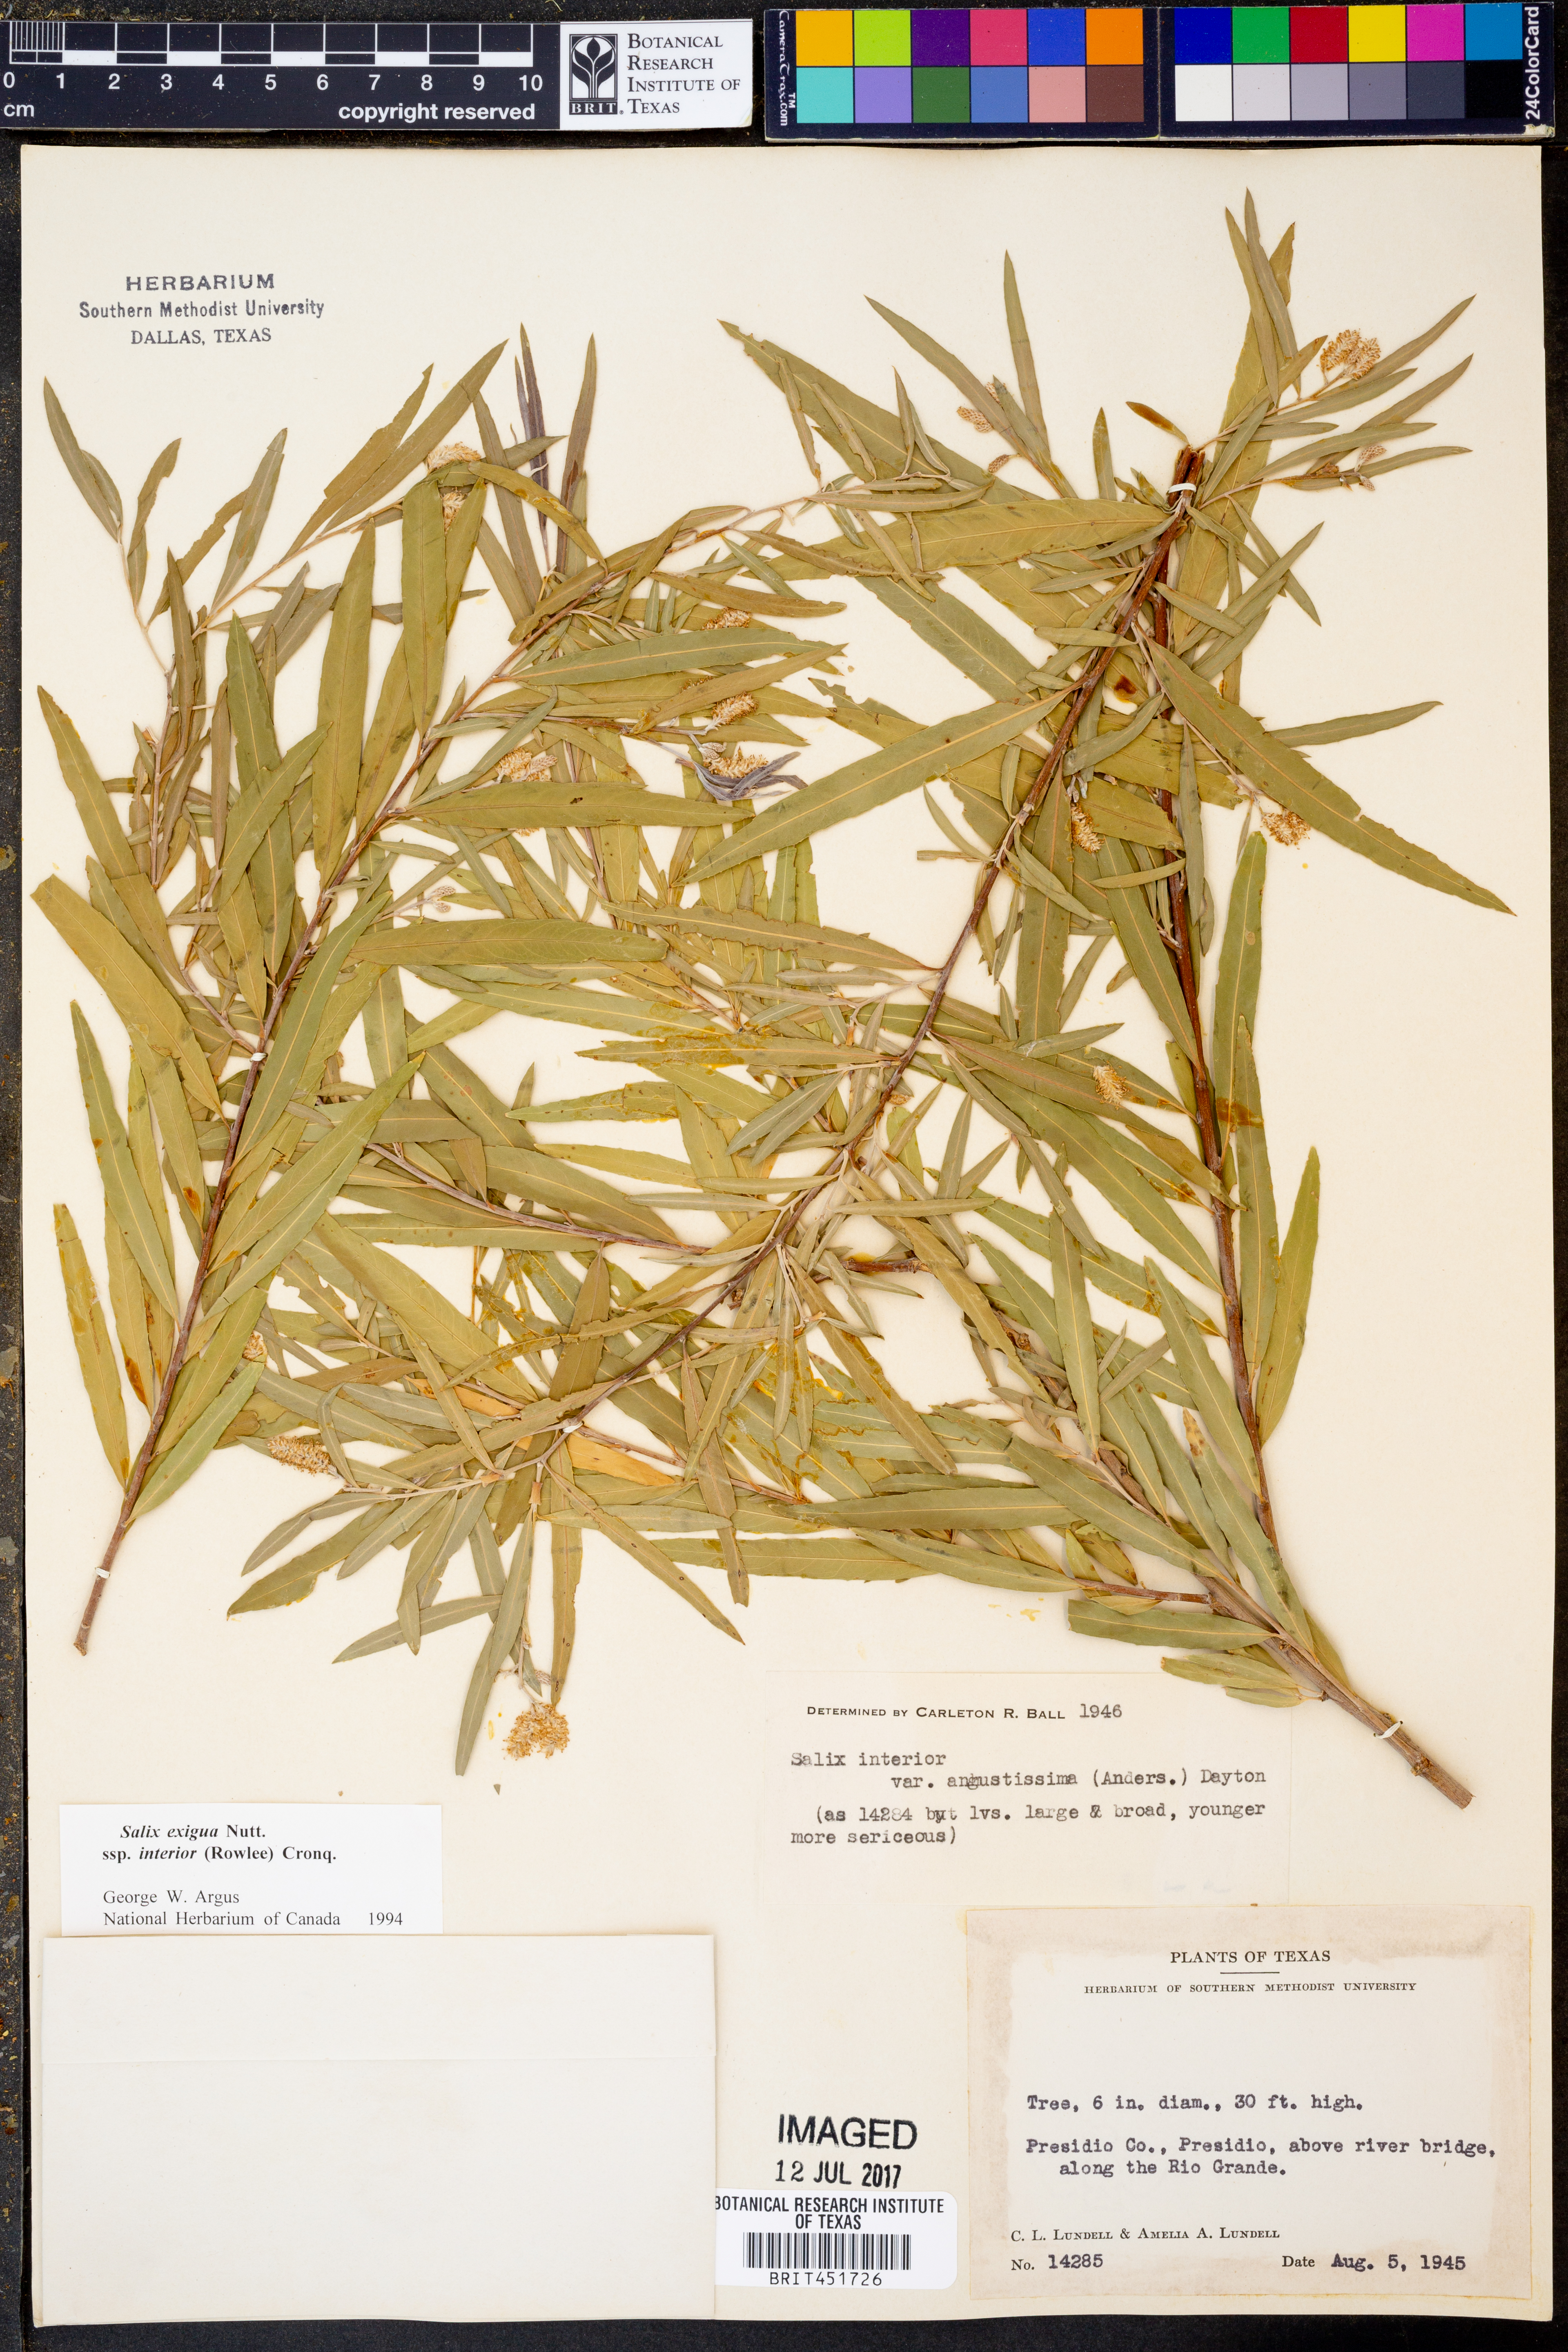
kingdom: Plantae
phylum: Tracheophyta
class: Magnoliopsida
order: Malpighiales
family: Salicaceae
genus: Salix
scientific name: Salix exigua
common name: Coyote willow
